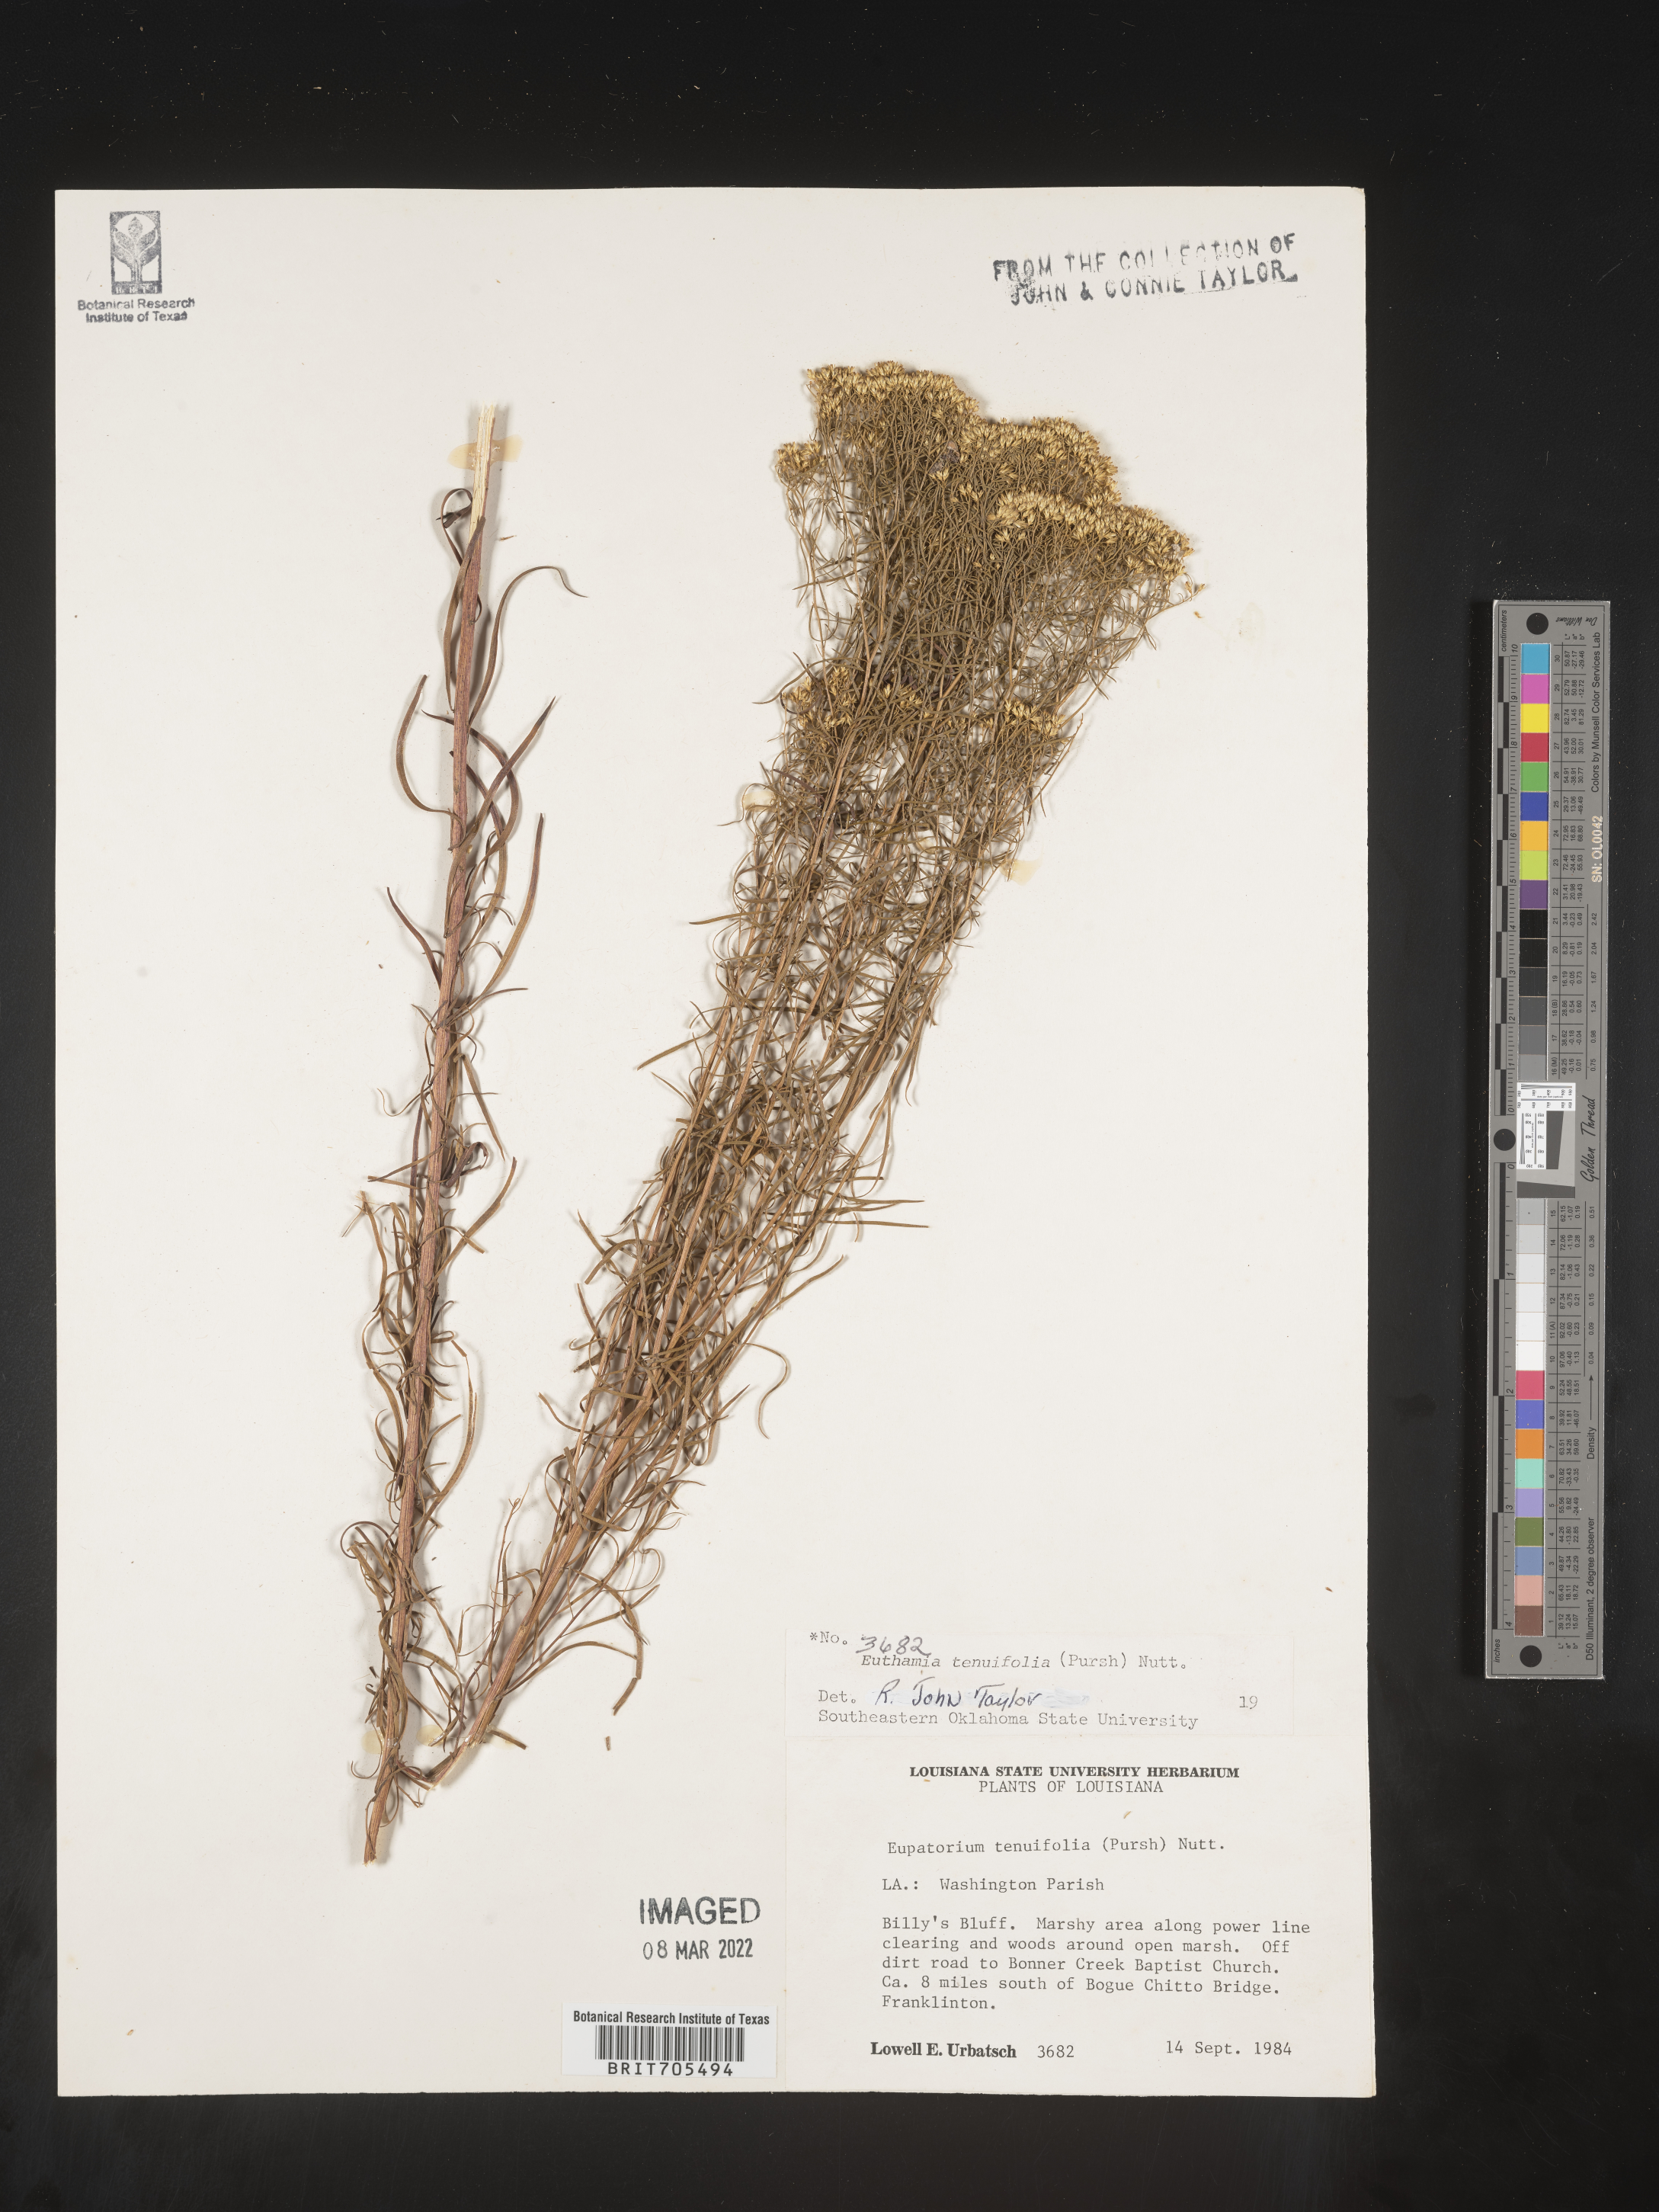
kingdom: Plantae
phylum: Tracheophyta
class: Magnoliopsida
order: Asterales
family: Asteraceae
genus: Euthamia
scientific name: Euthamia caroliniana
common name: Coastal plain goldentop
